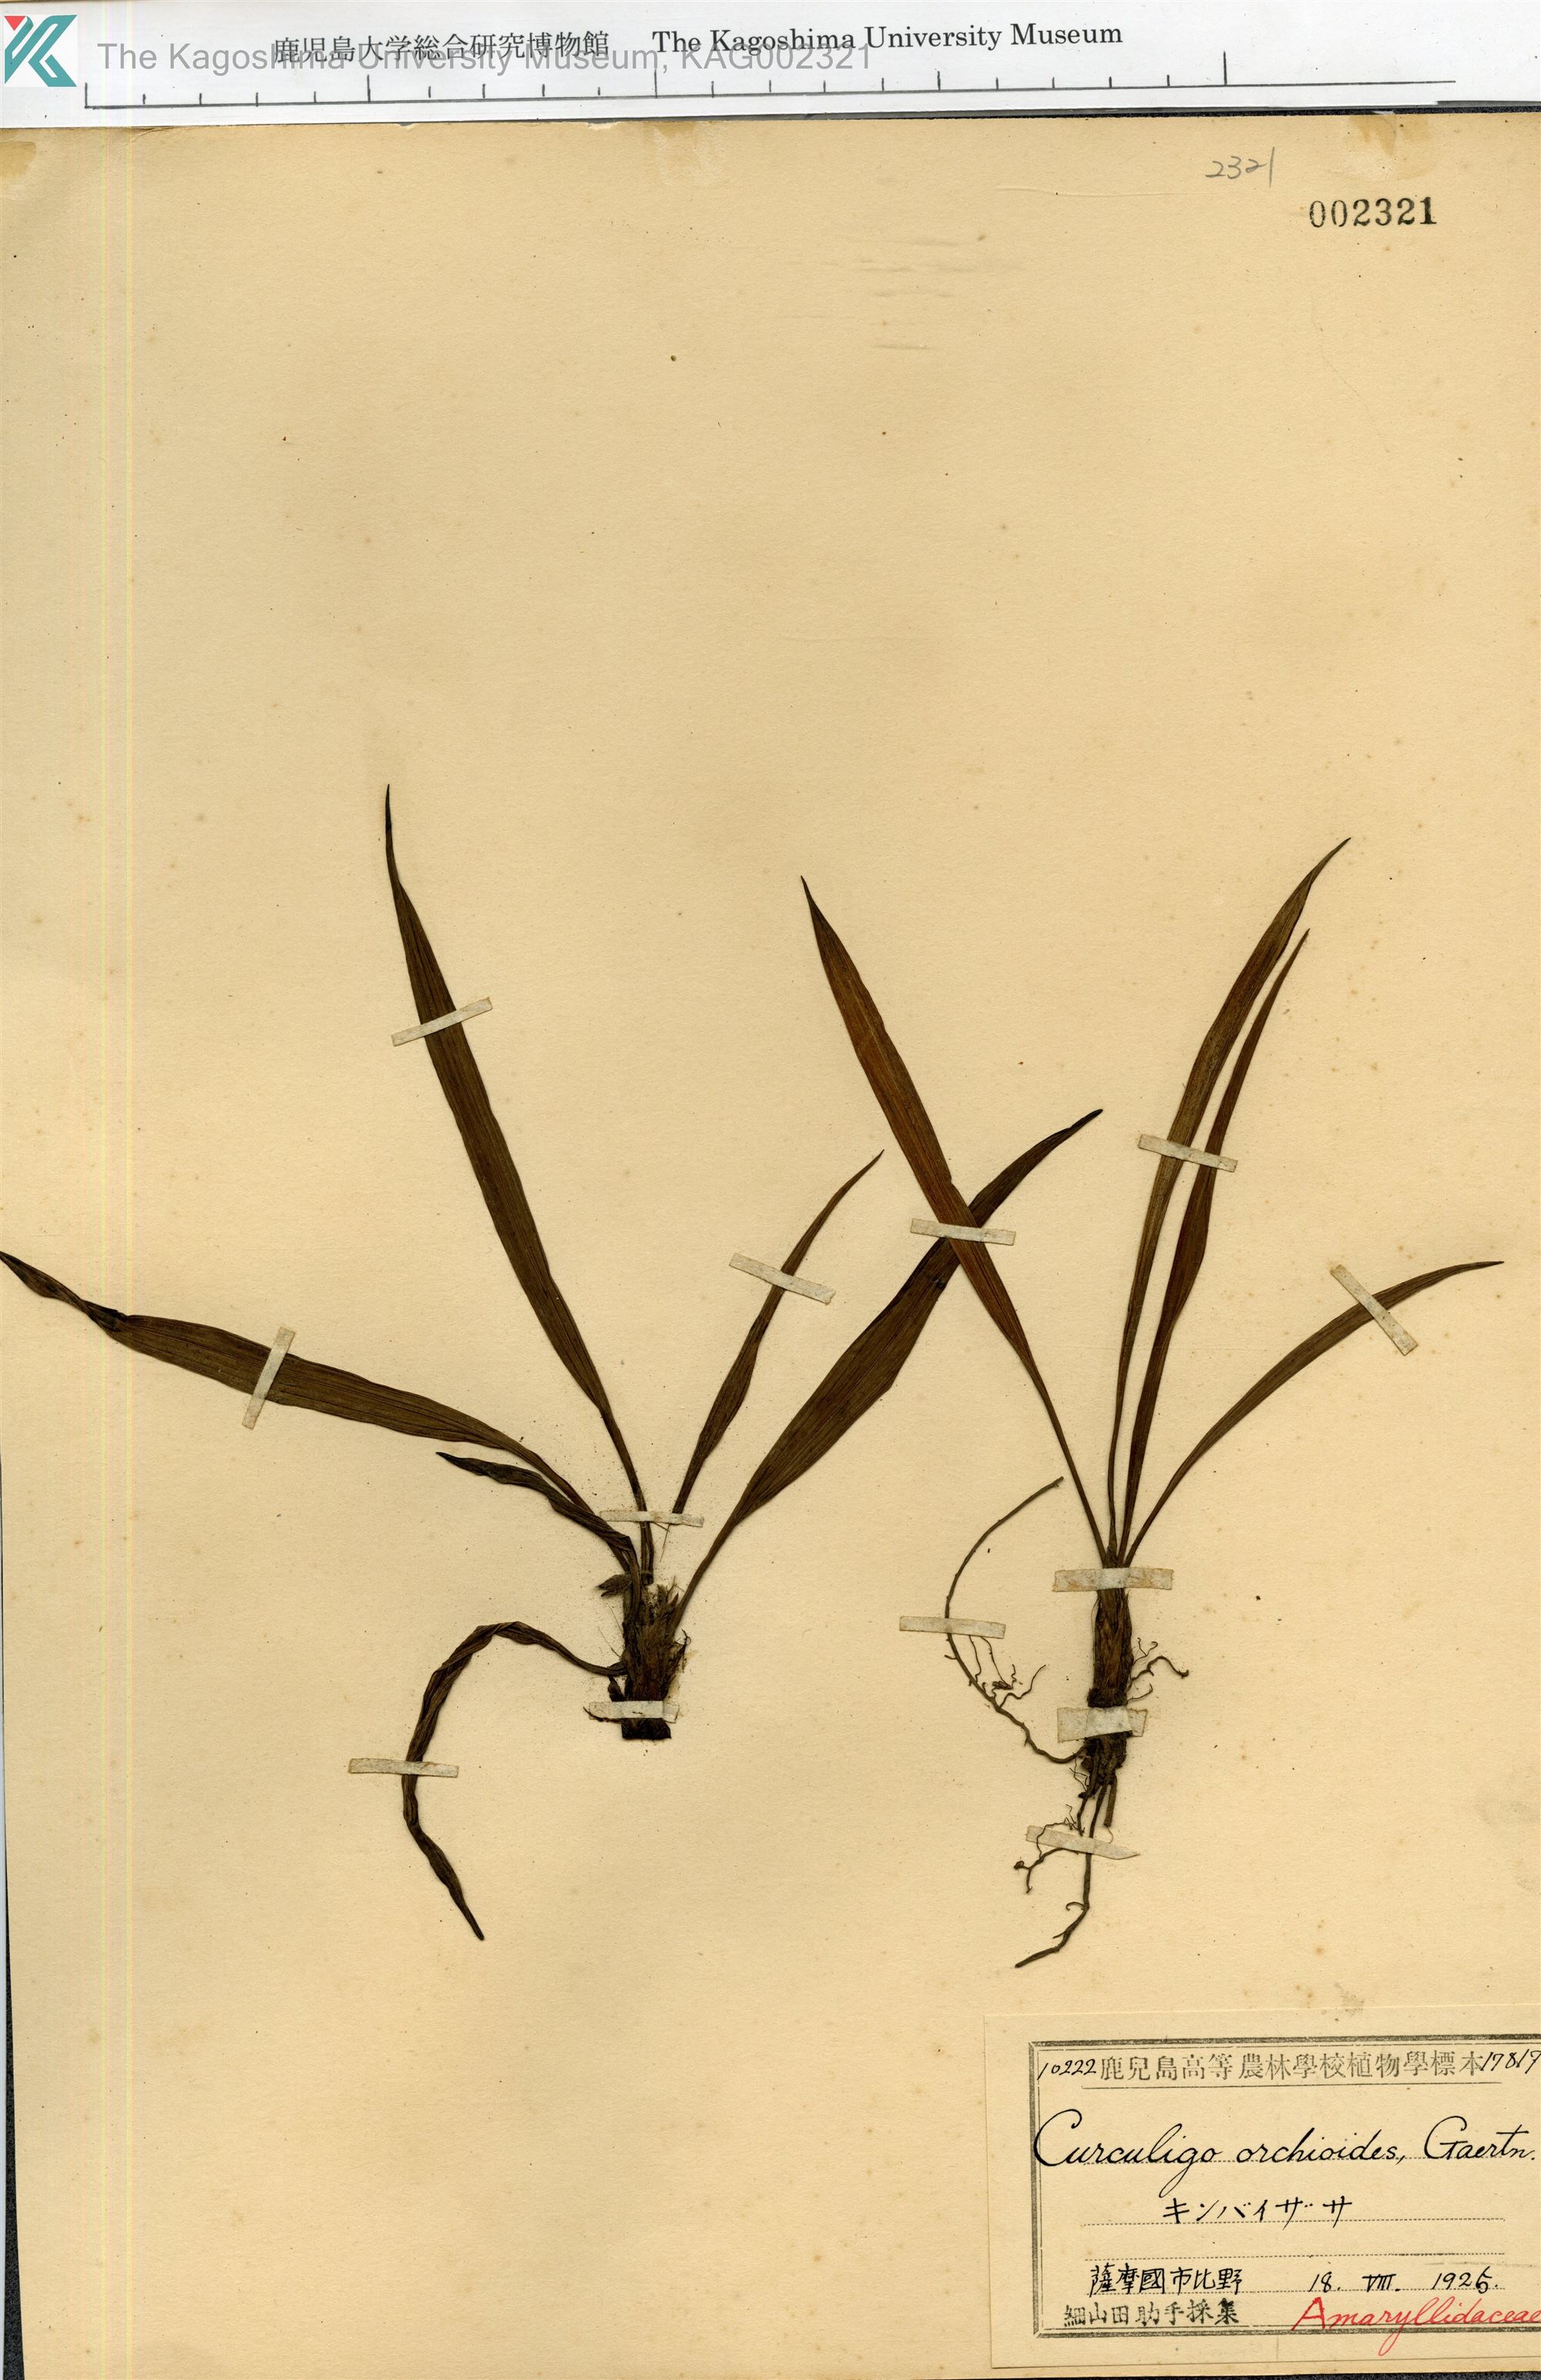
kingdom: Plantae
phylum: Tracheophyta
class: Liliopsida
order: Asparagales
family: Hypoxidaceae
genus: Curculigo
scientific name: Curculigo orchioides
